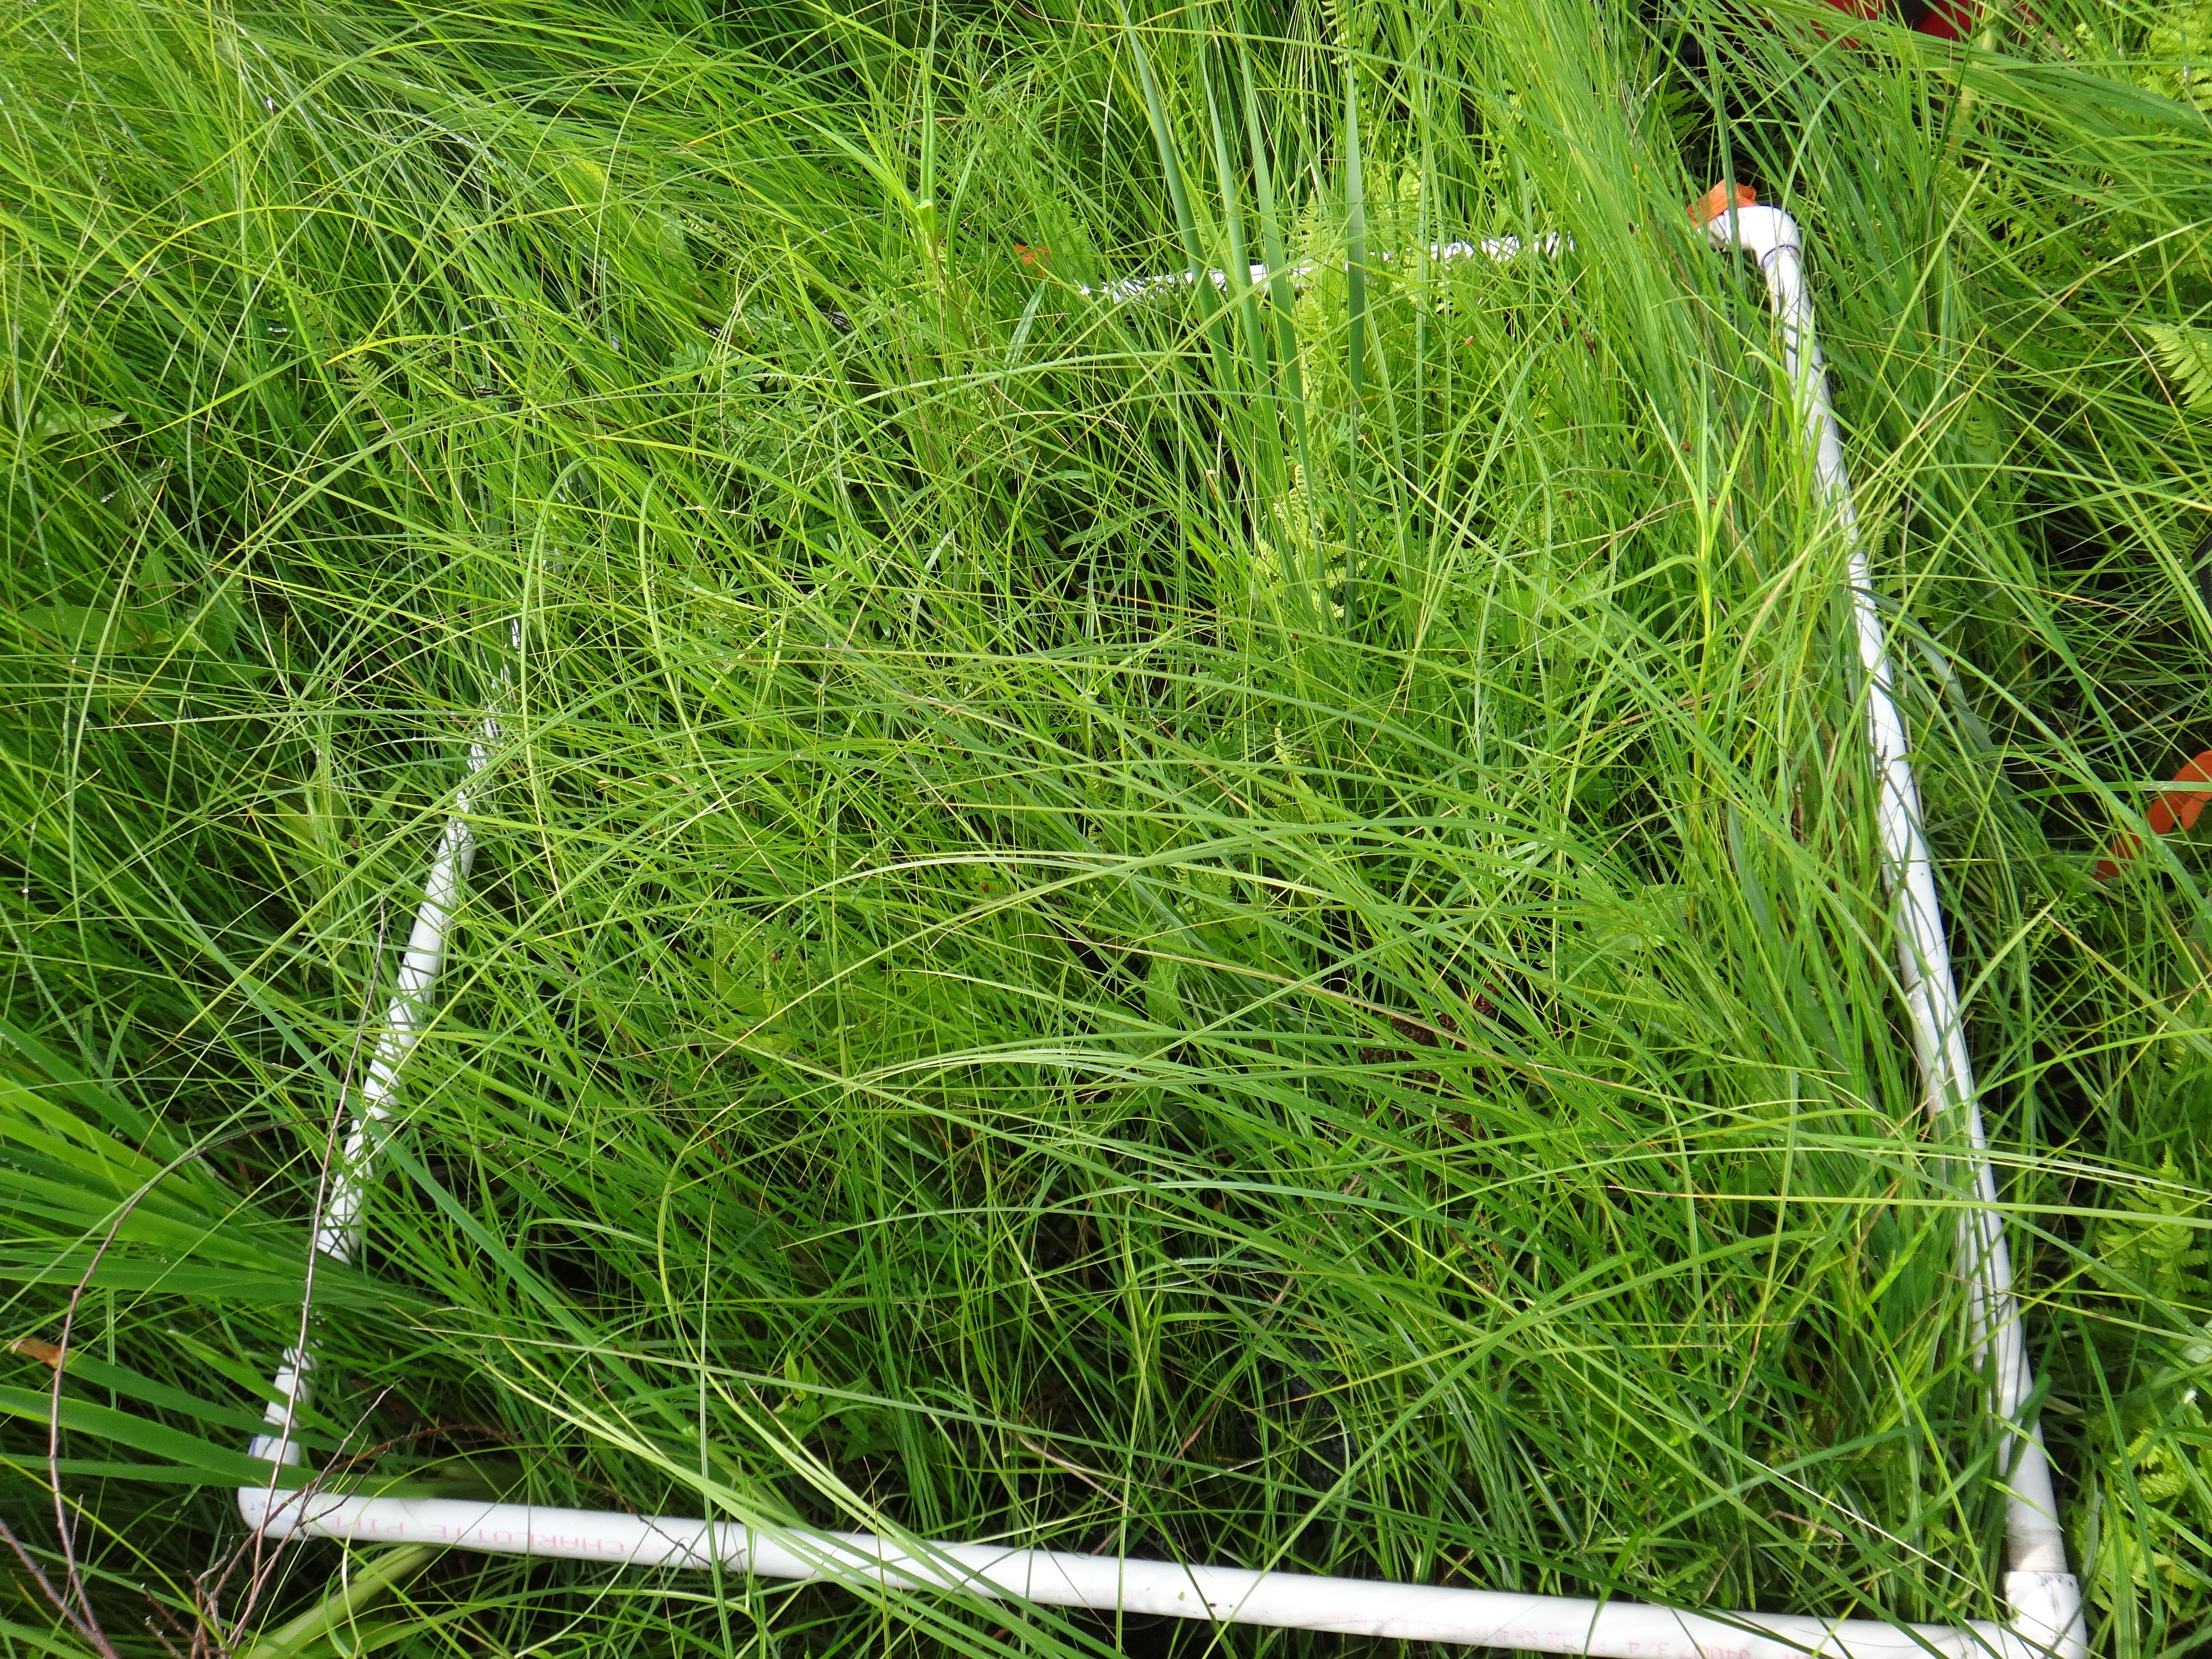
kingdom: Plantae
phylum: Tracheophyta
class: Magnoliopsida
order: Asterales
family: Asteraceae
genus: Symphyotrichum
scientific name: Symphyotrichum lanceolatum
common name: Panicled aster
